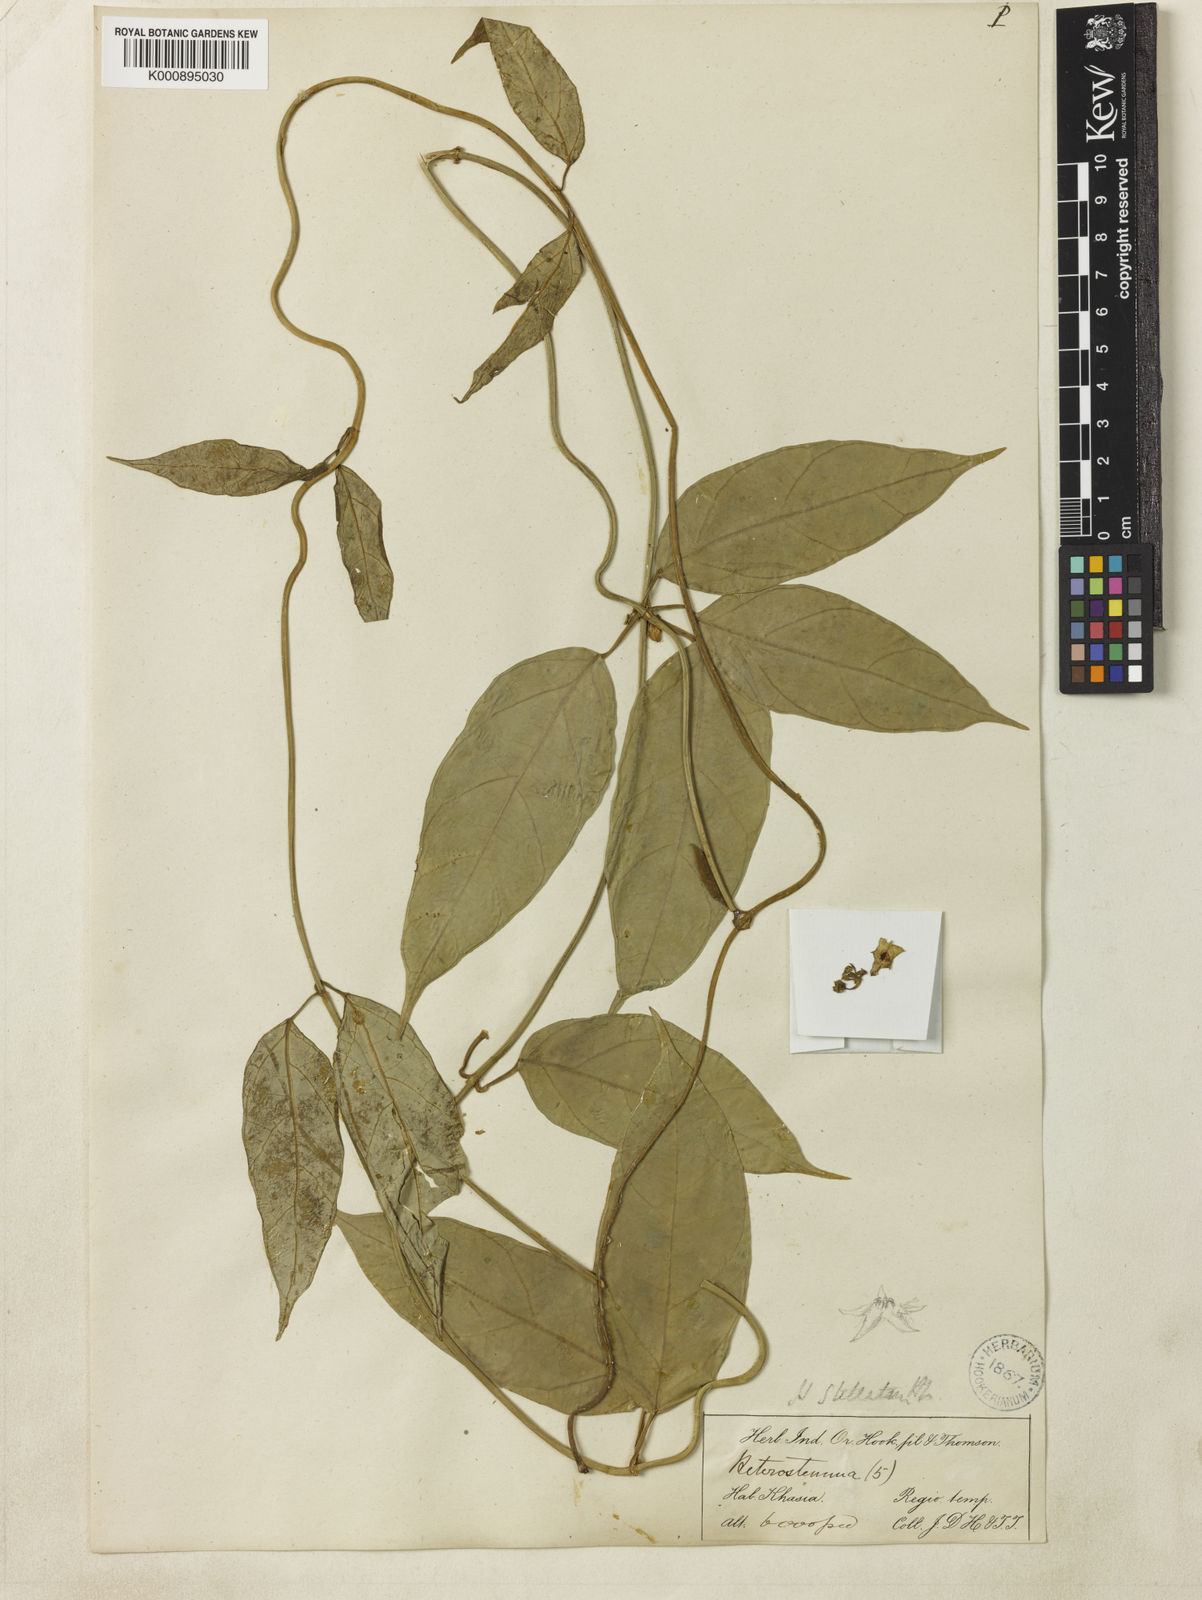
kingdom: Plantae
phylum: Tracheophyta
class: Magnoliopsida
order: Gentianales
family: Apocynaceae
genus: Heterostemma
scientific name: Heterostemma stellatum
